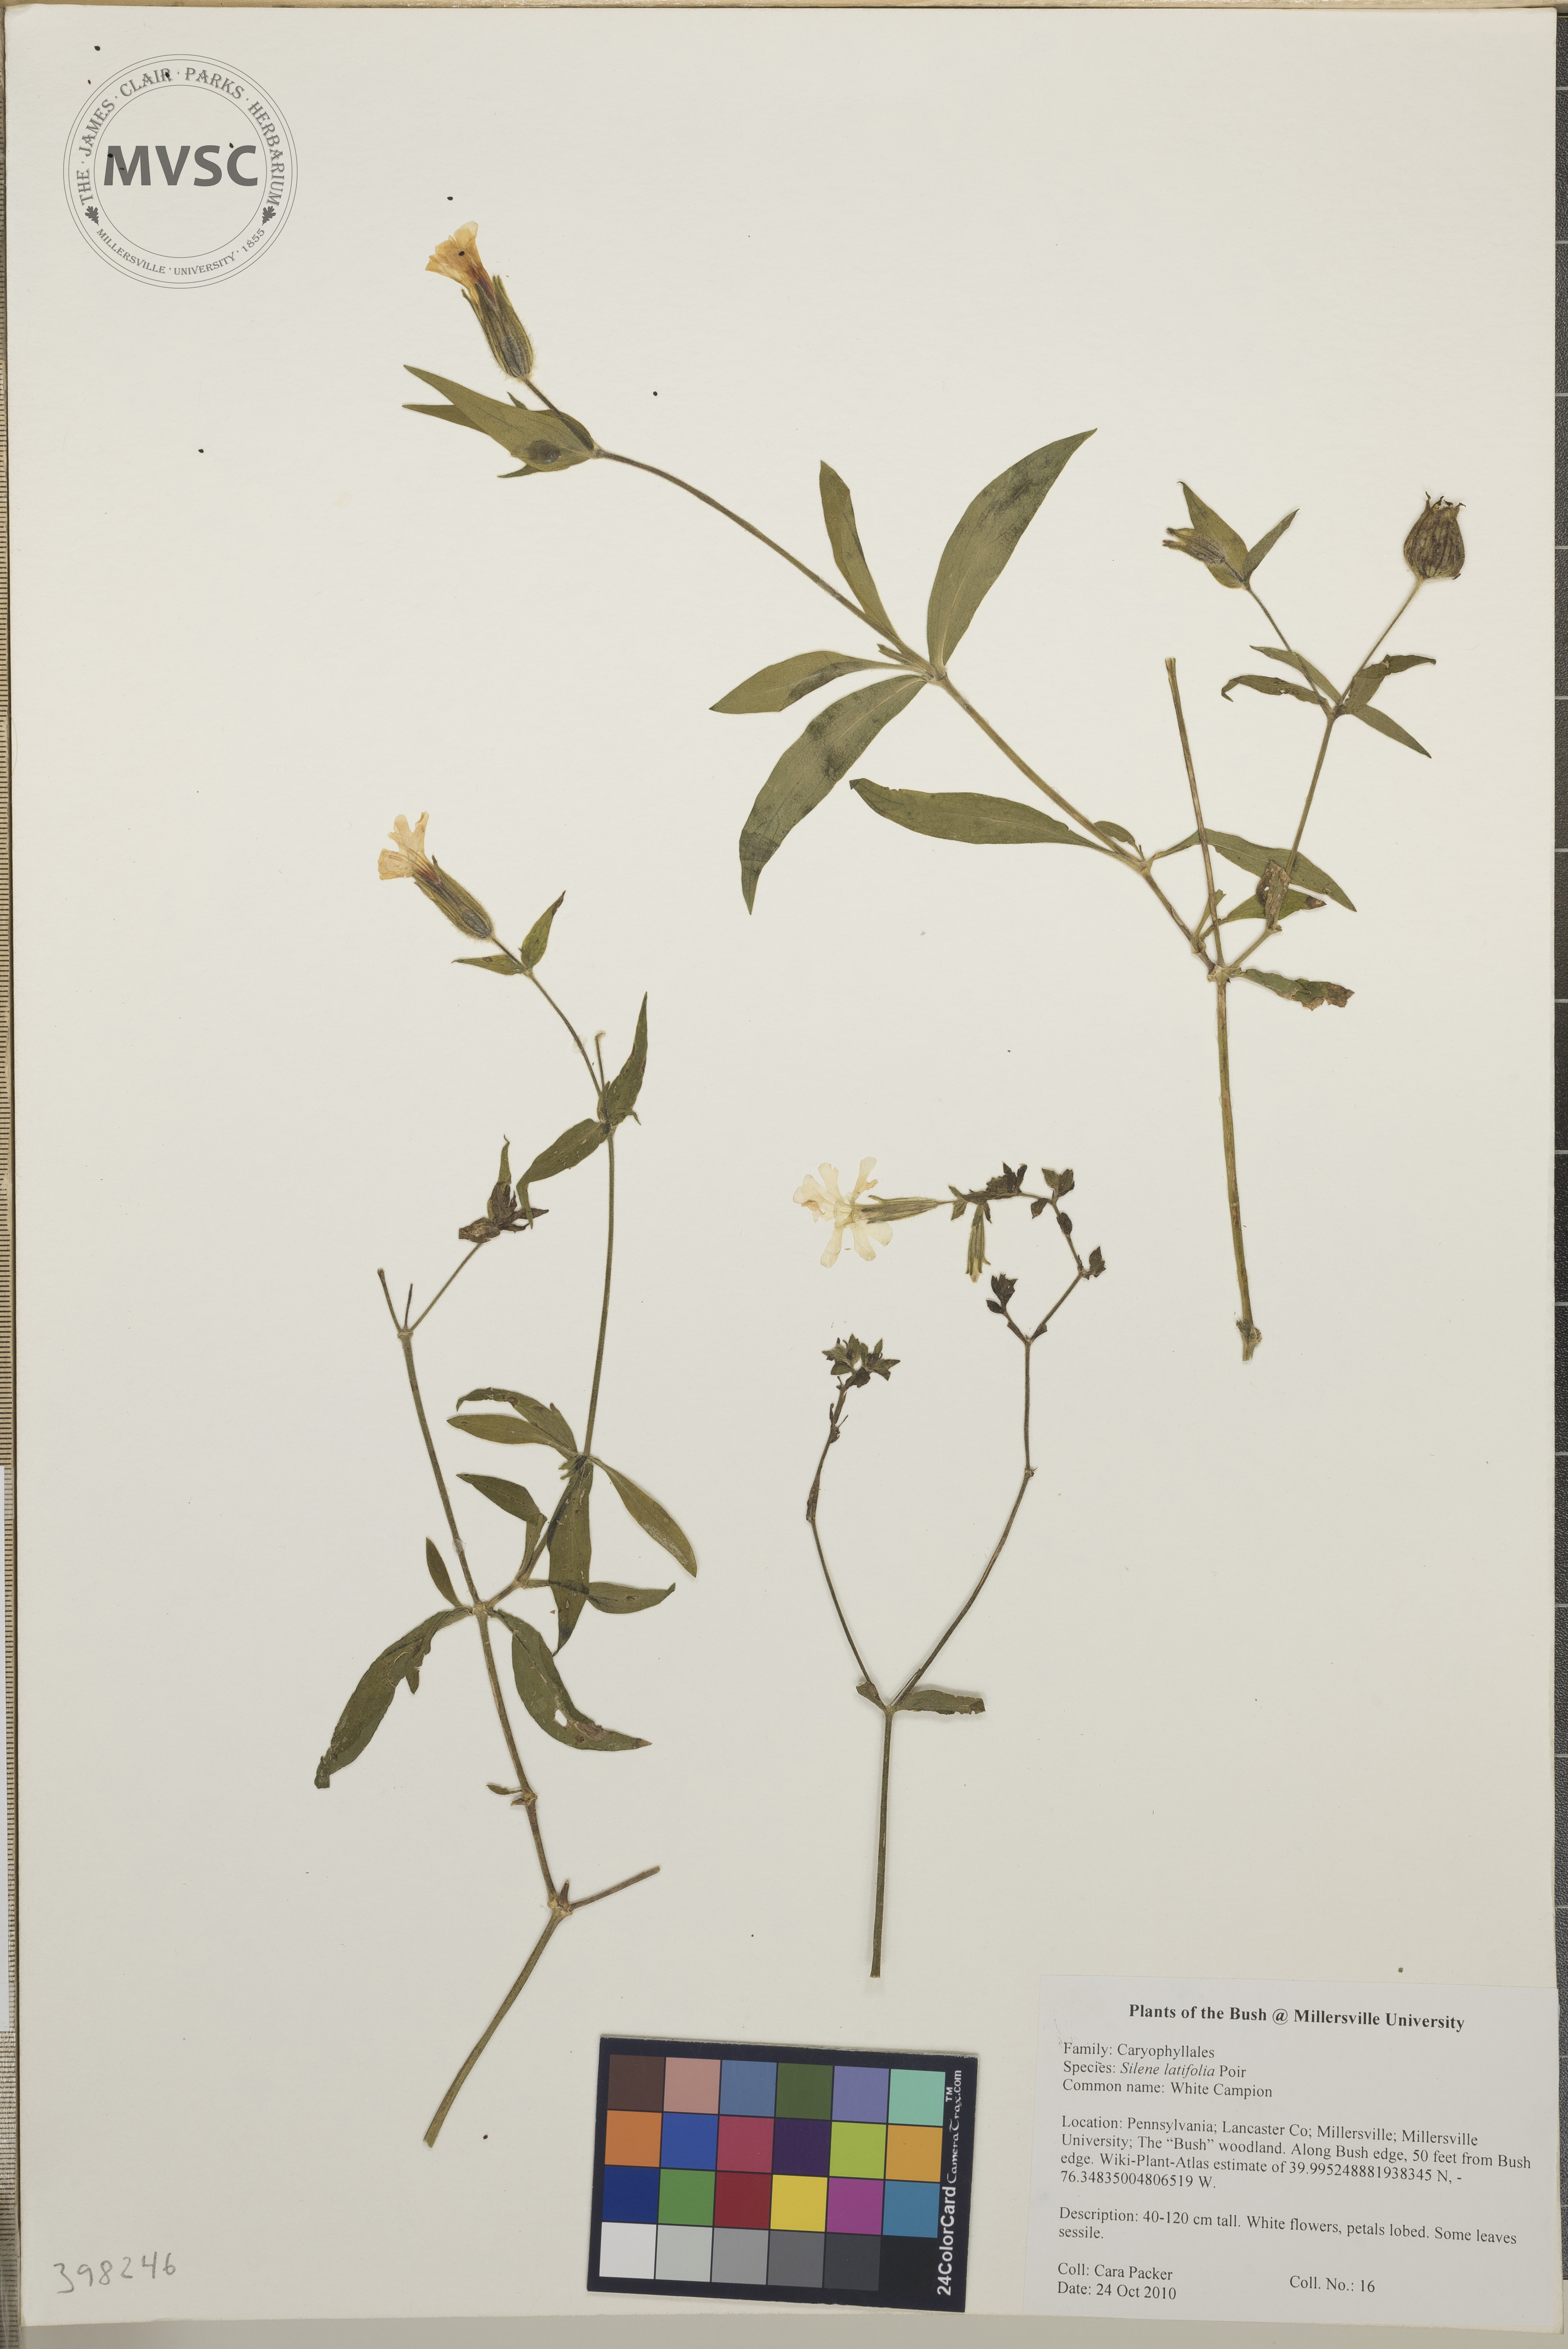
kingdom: Plantae
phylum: Tracheophyta
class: Magnoliopsida
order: Caryophyllales
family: Caryophyllaceae
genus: Silene
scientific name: Silene latifolia
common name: White campion
